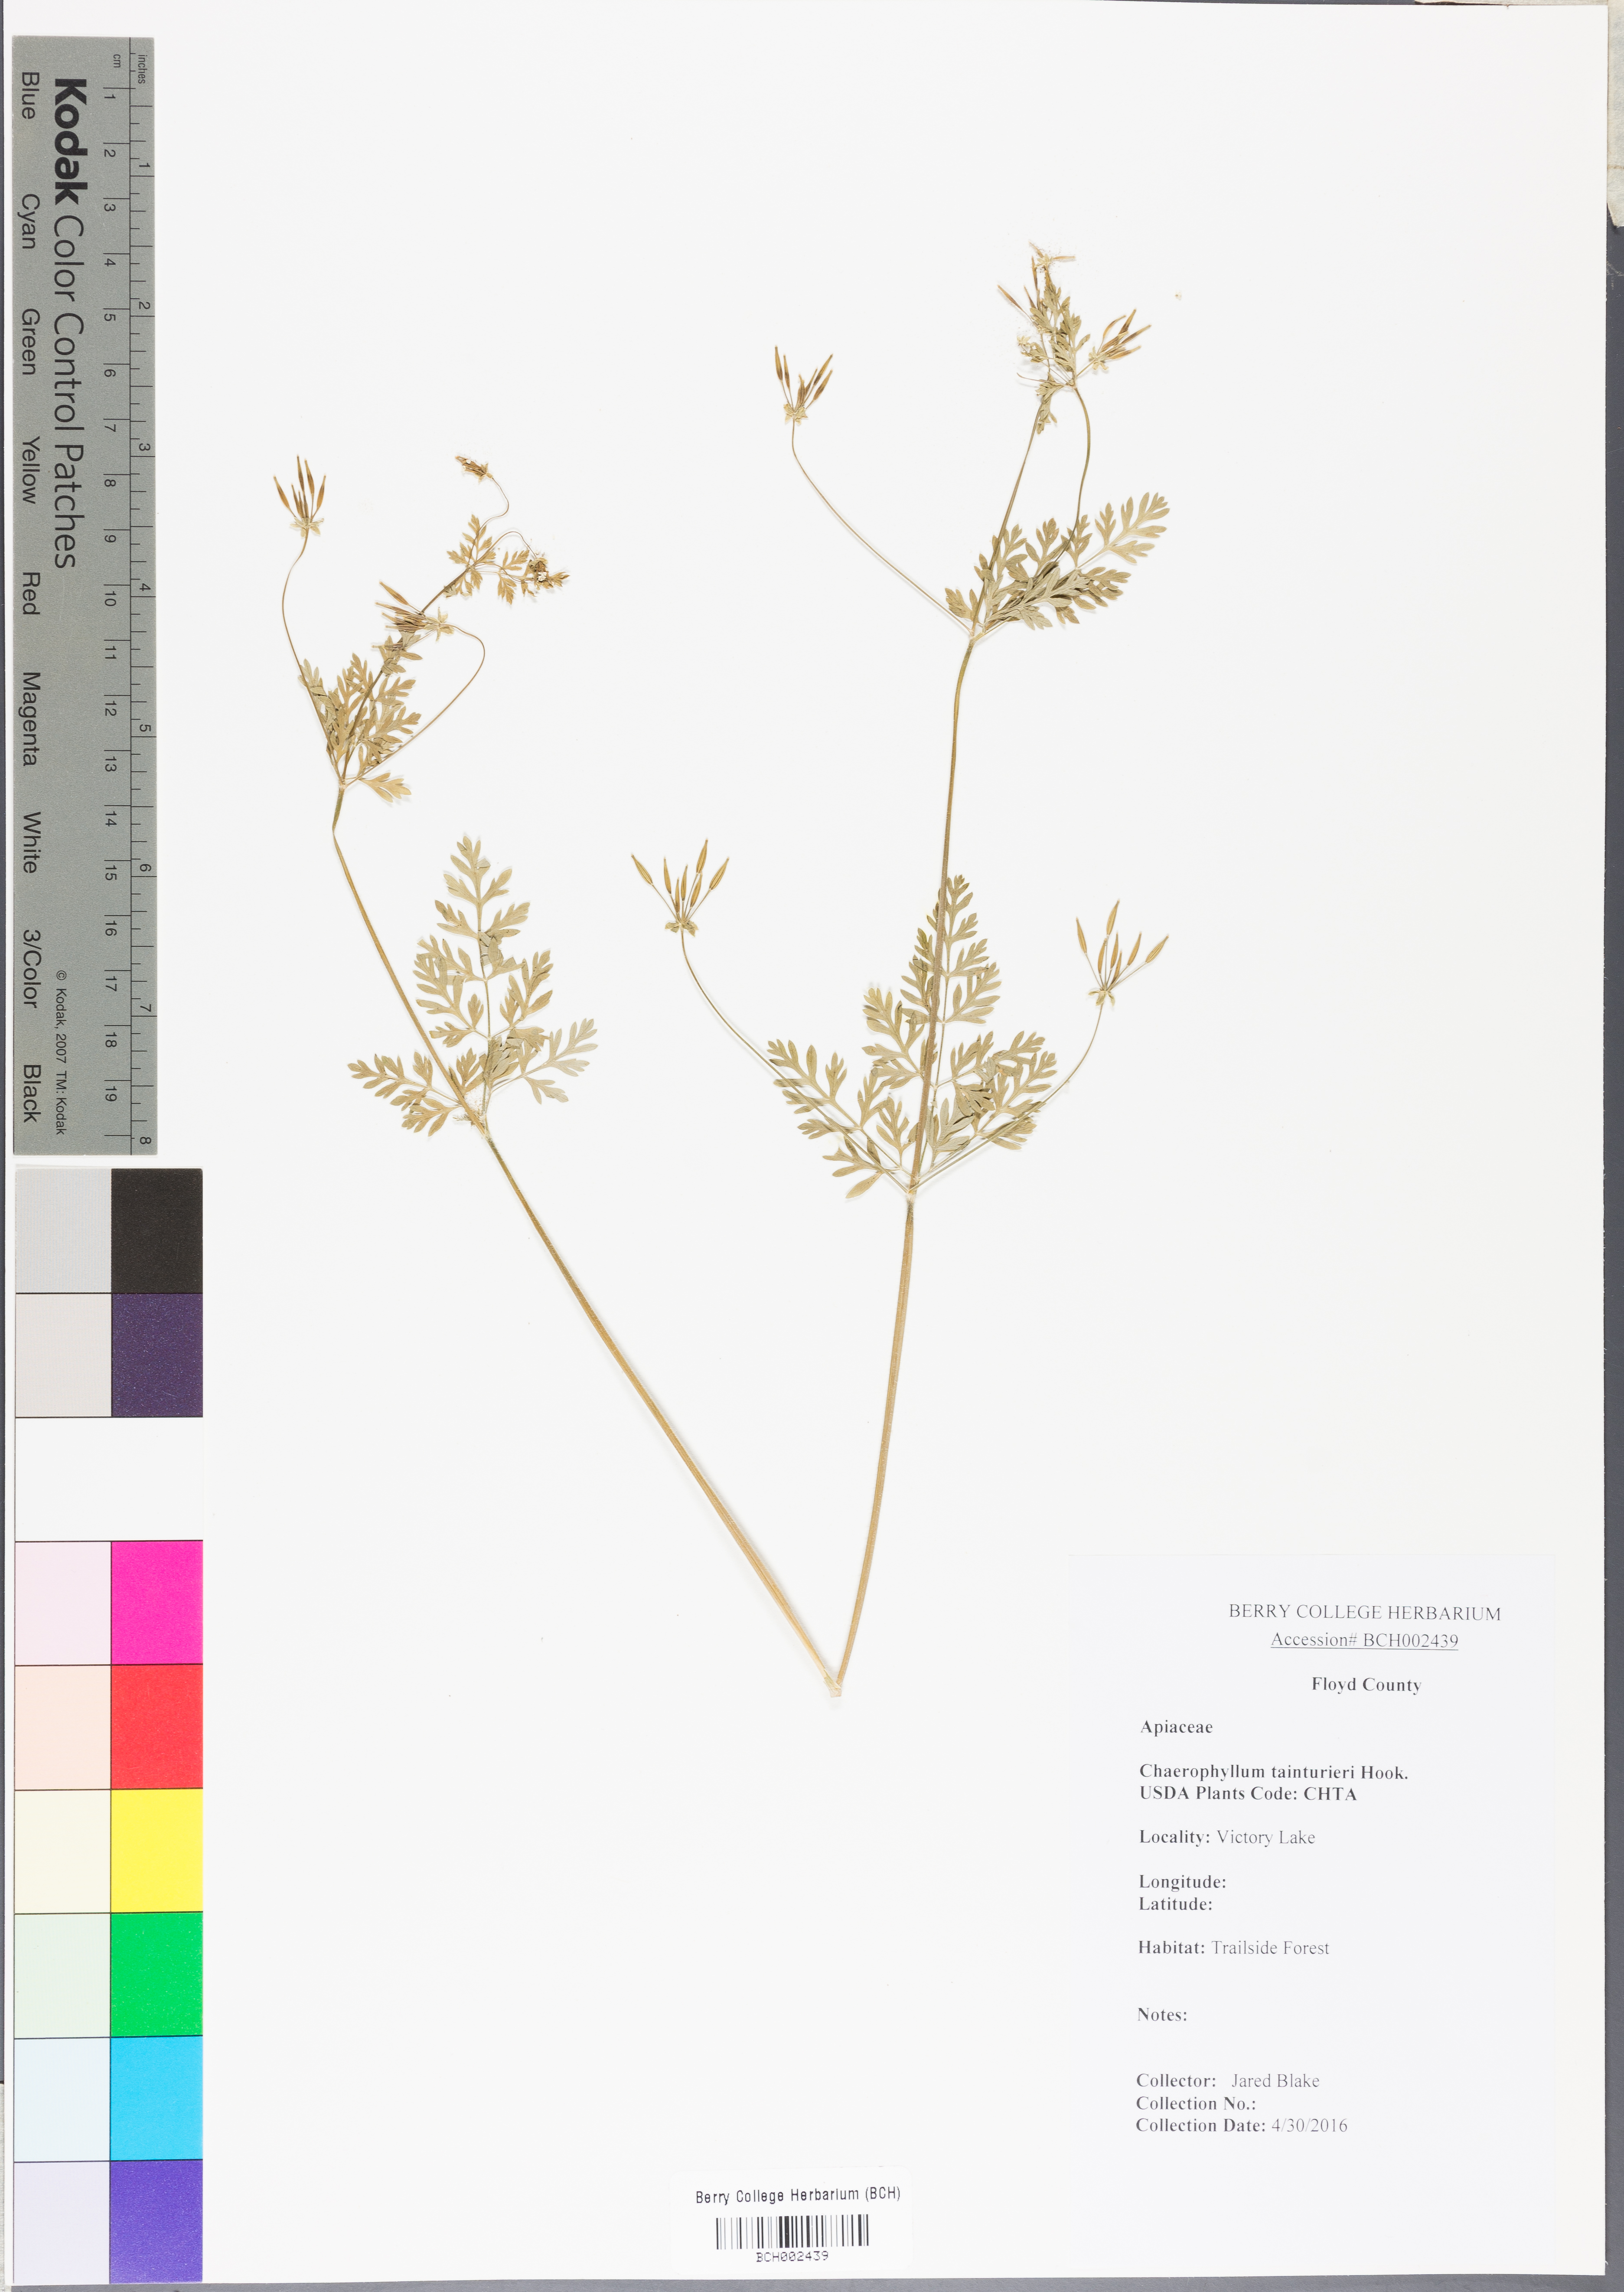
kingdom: Plantae
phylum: Tracheophyta
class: Magnoliopsida
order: Apiales
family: Apiaceae
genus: Chaerophyllum
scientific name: Chaerophyllum tainturieri
